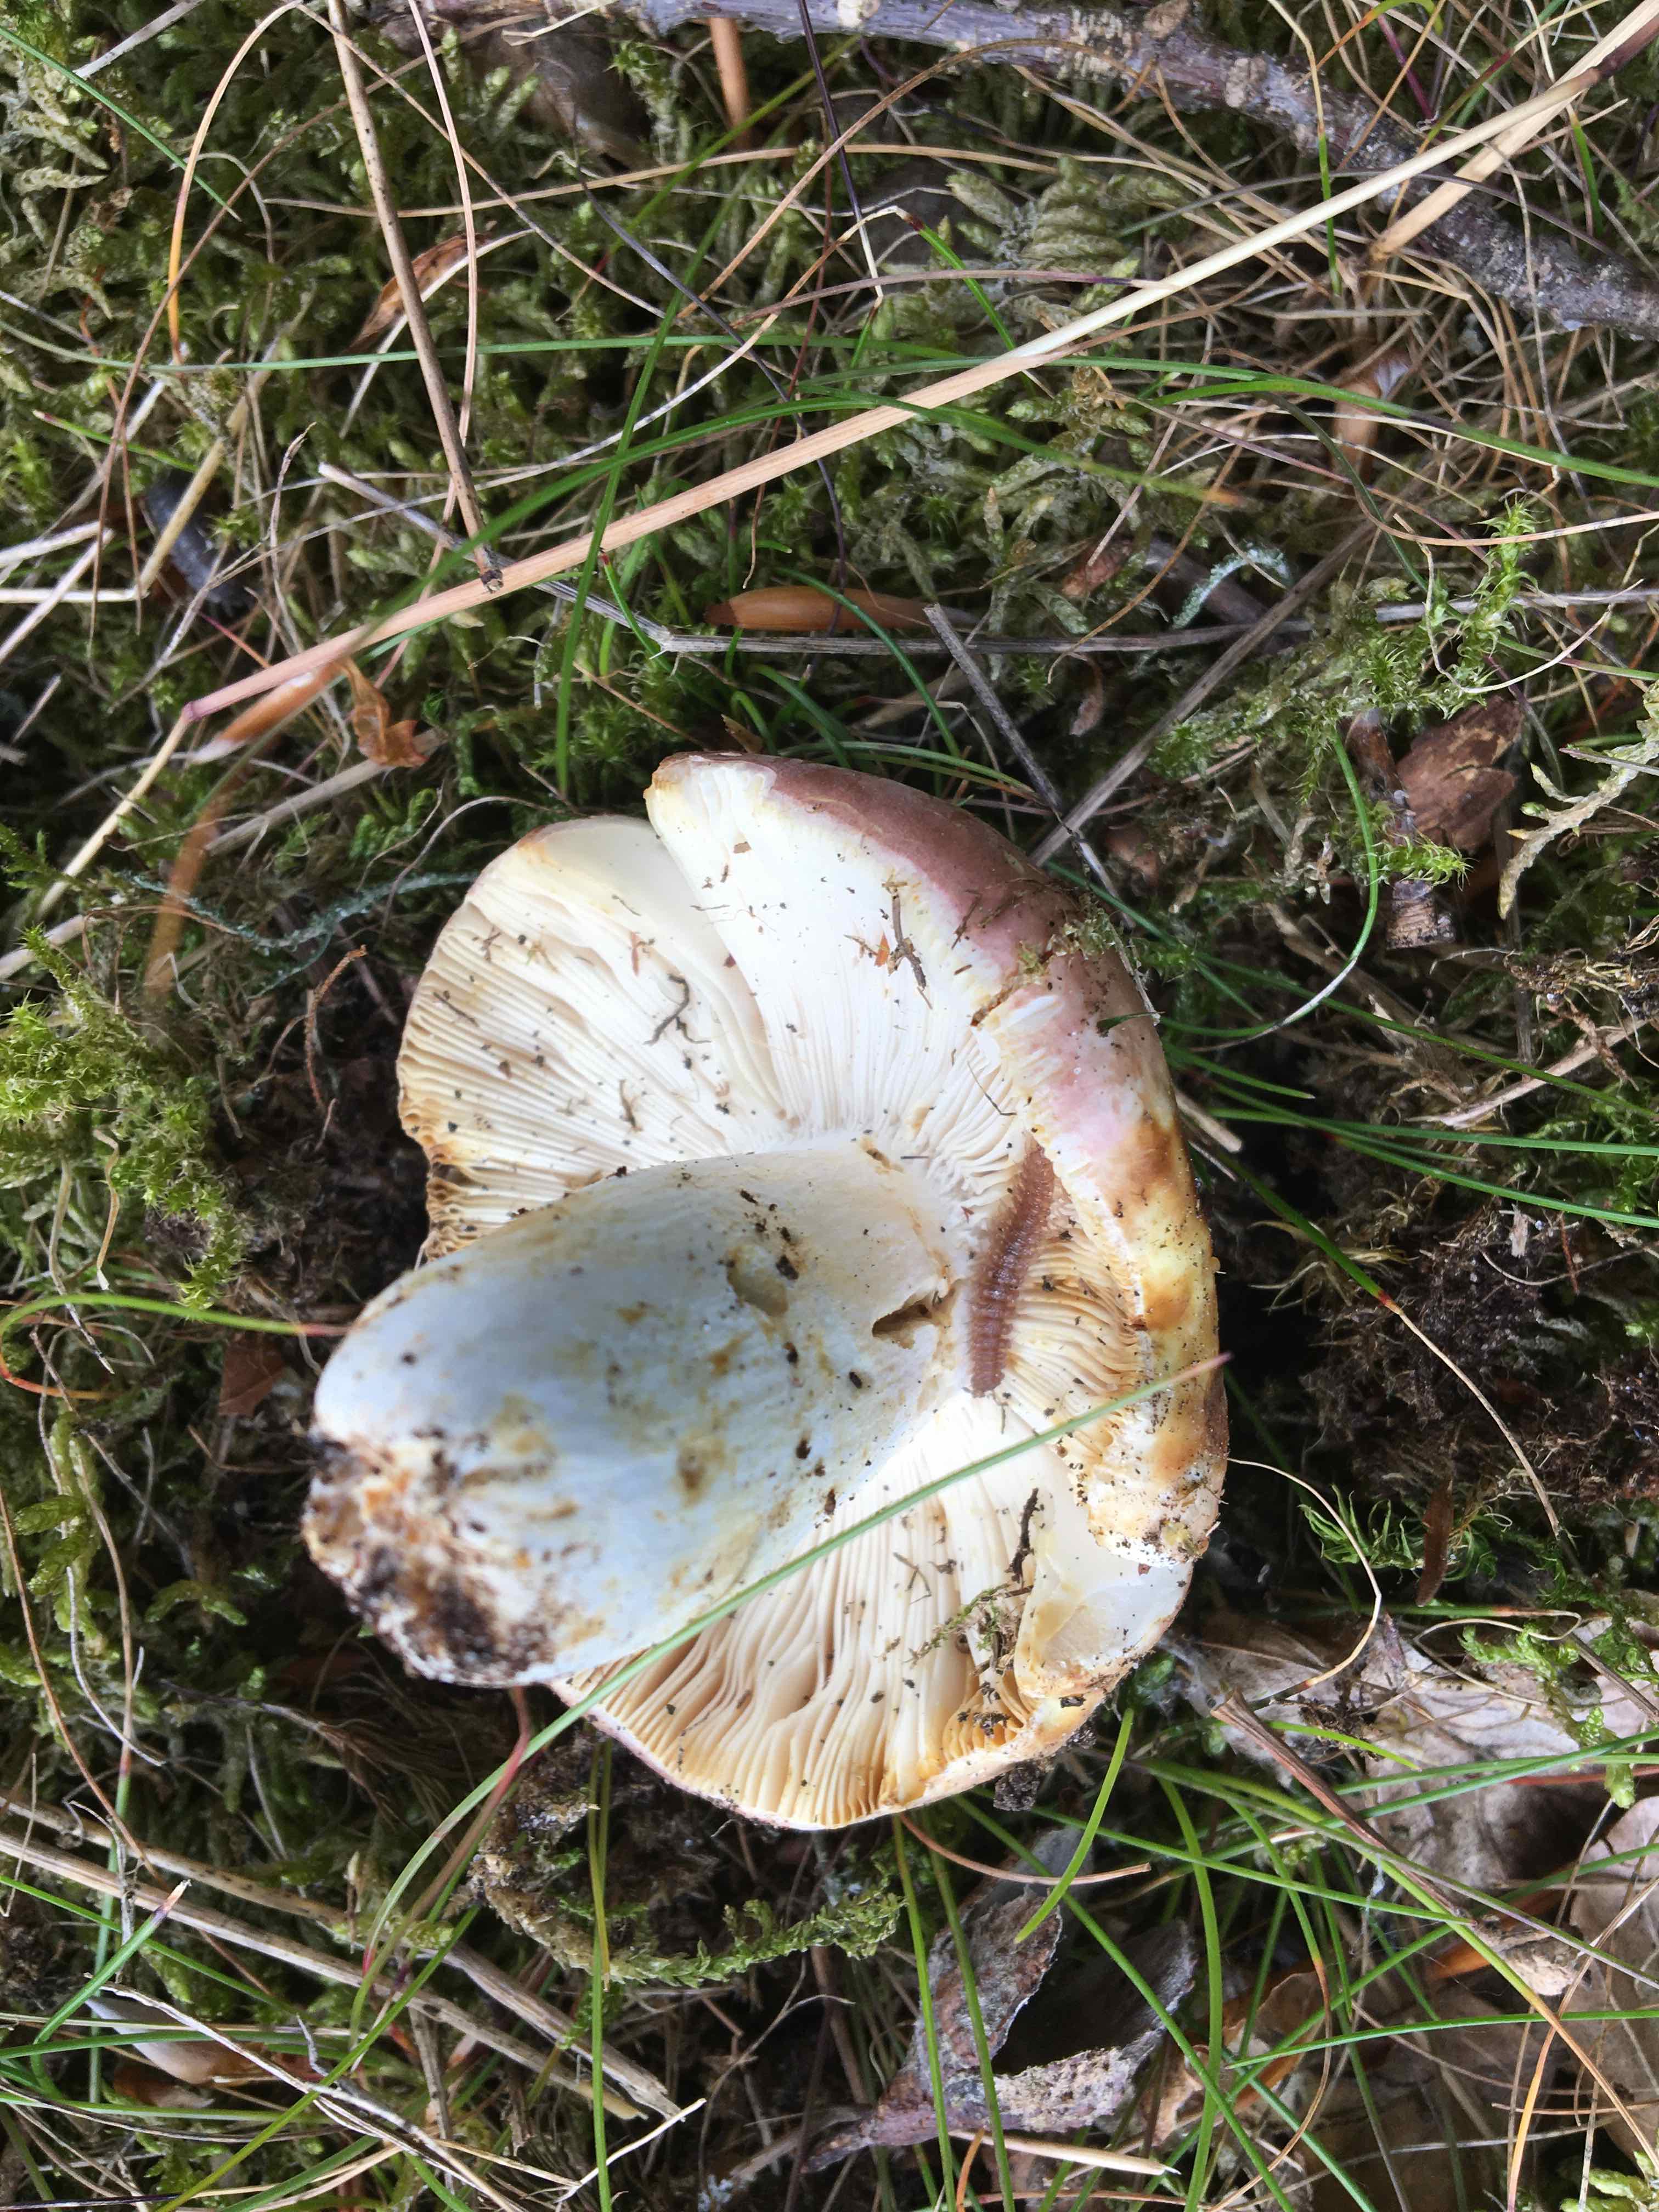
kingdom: Fungi
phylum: Basidiomycota
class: Agaricomycetes
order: Russulales
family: Russulaceae
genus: Russula
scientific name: Russula vesca
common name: spiselig skørhat
